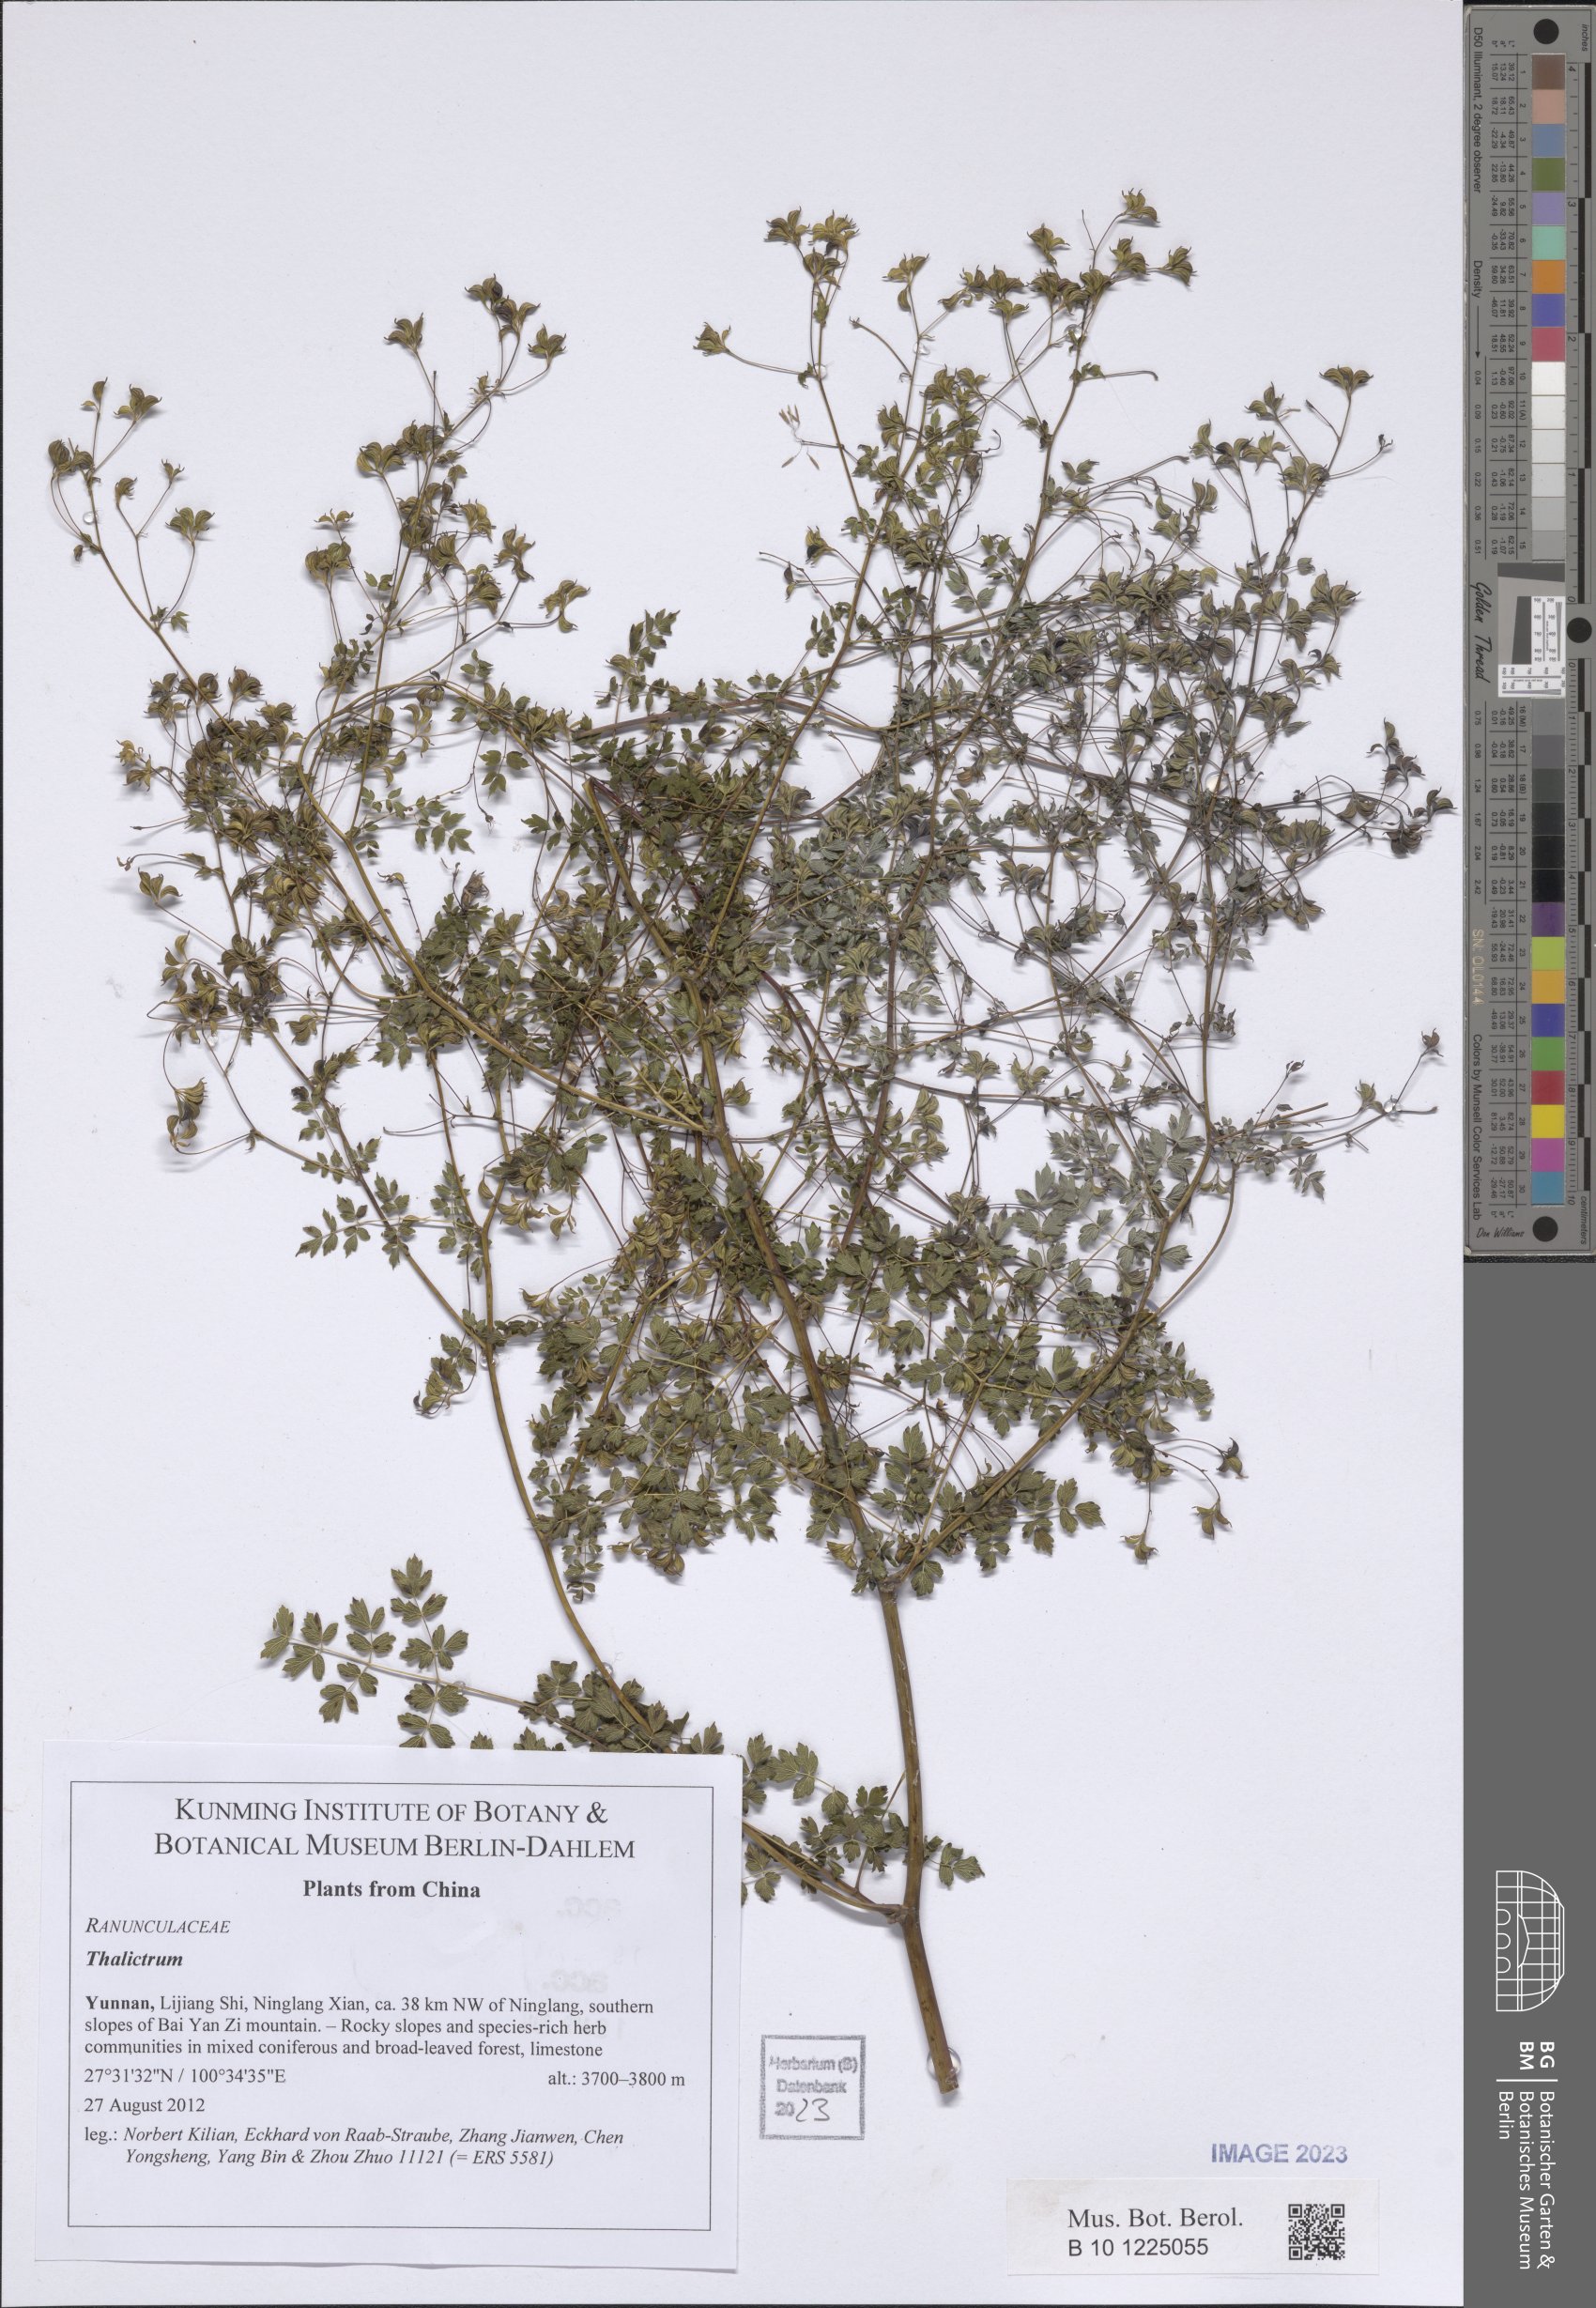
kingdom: Plantae
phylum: Tracheophyta
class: Magnoliopsida
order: Ranunculales
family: Ranunculaceae
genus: Thalictrum
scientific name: Thalictrum
